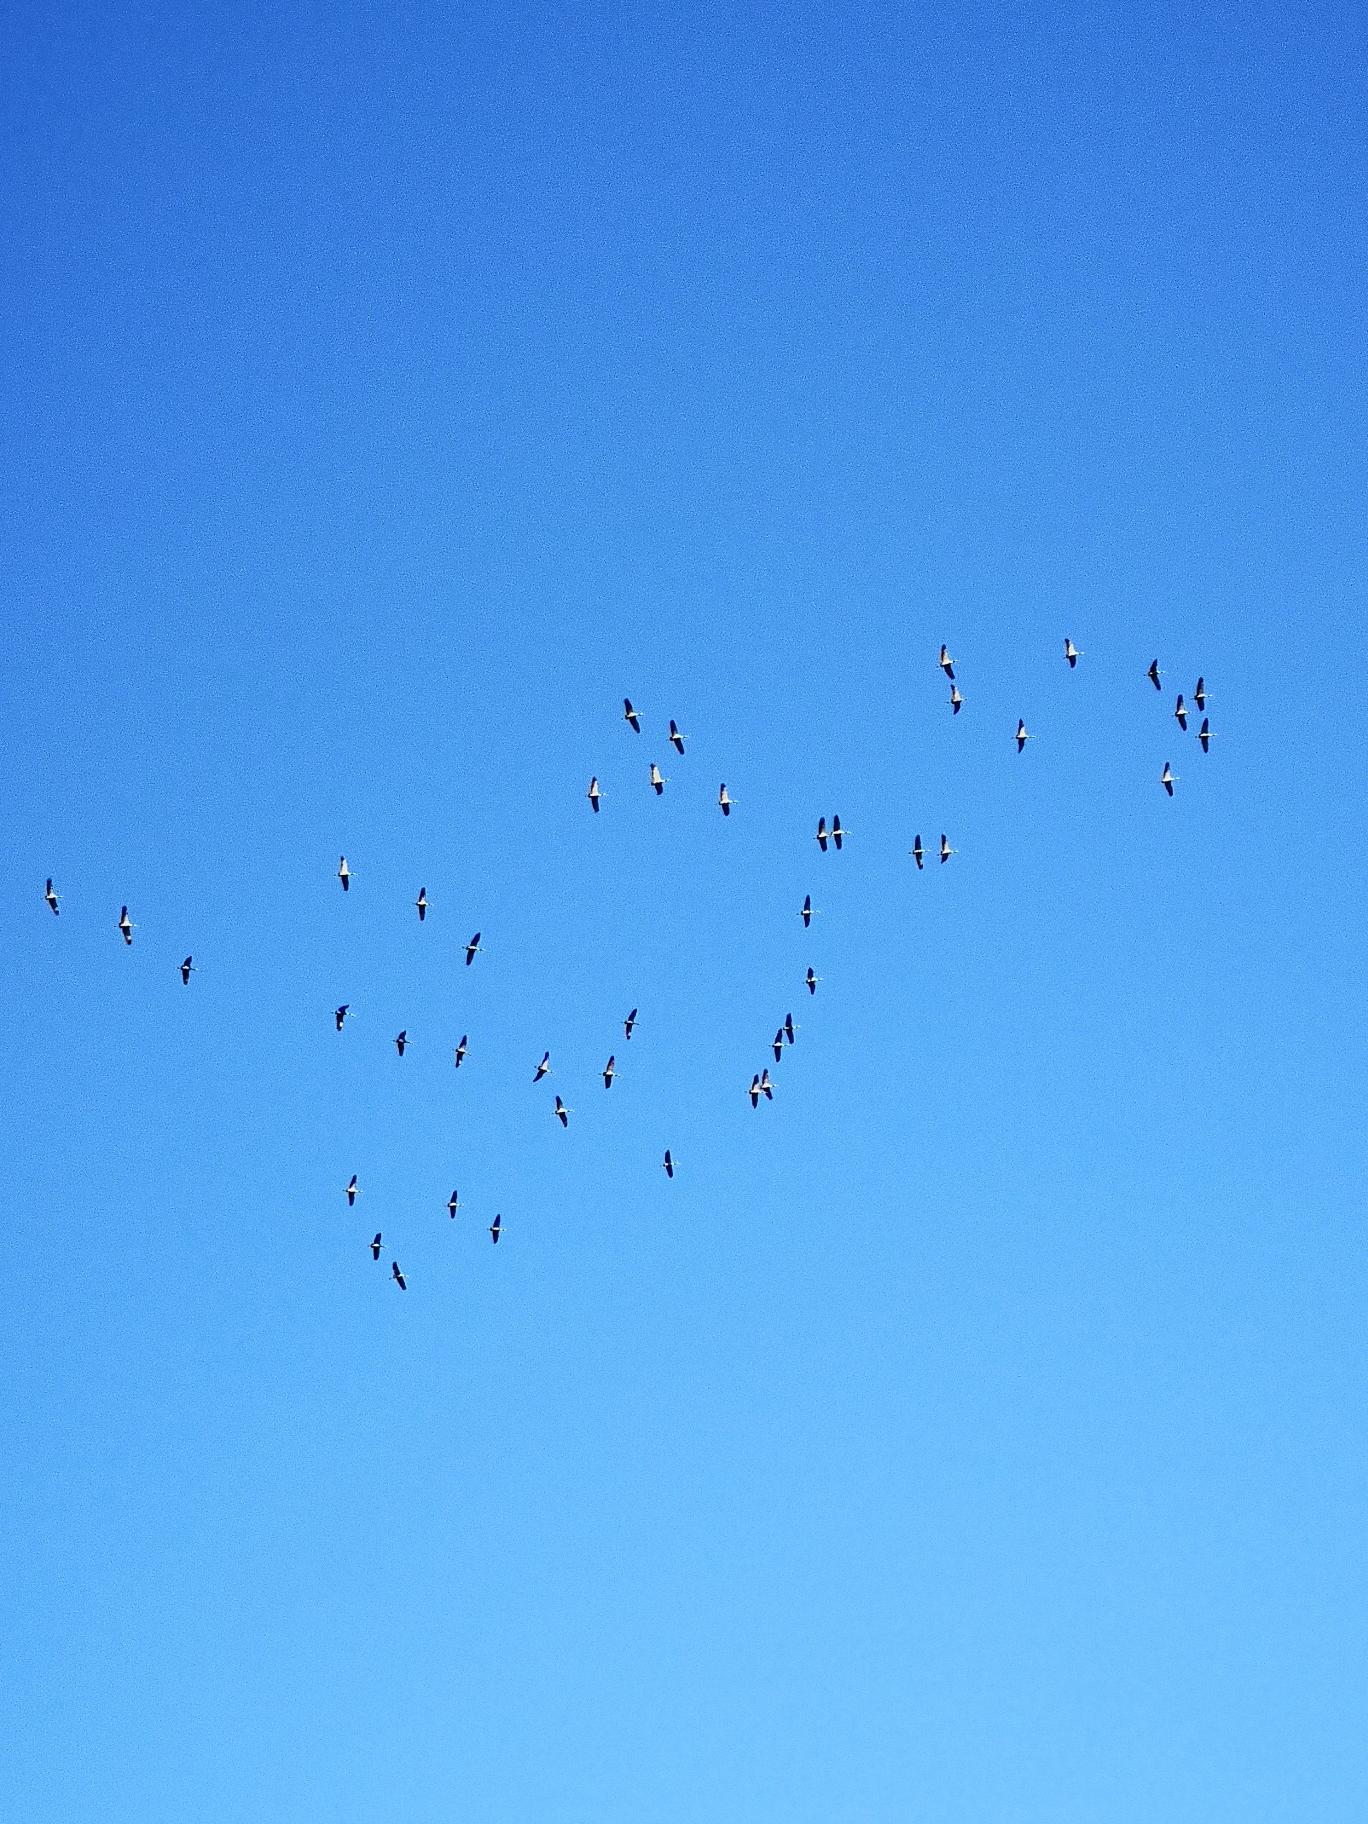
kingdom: Animalia
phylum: Chordata
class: Aves
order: Gruiformes
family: Gruidae
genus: Grus
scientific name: Grus grus
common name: Trane
